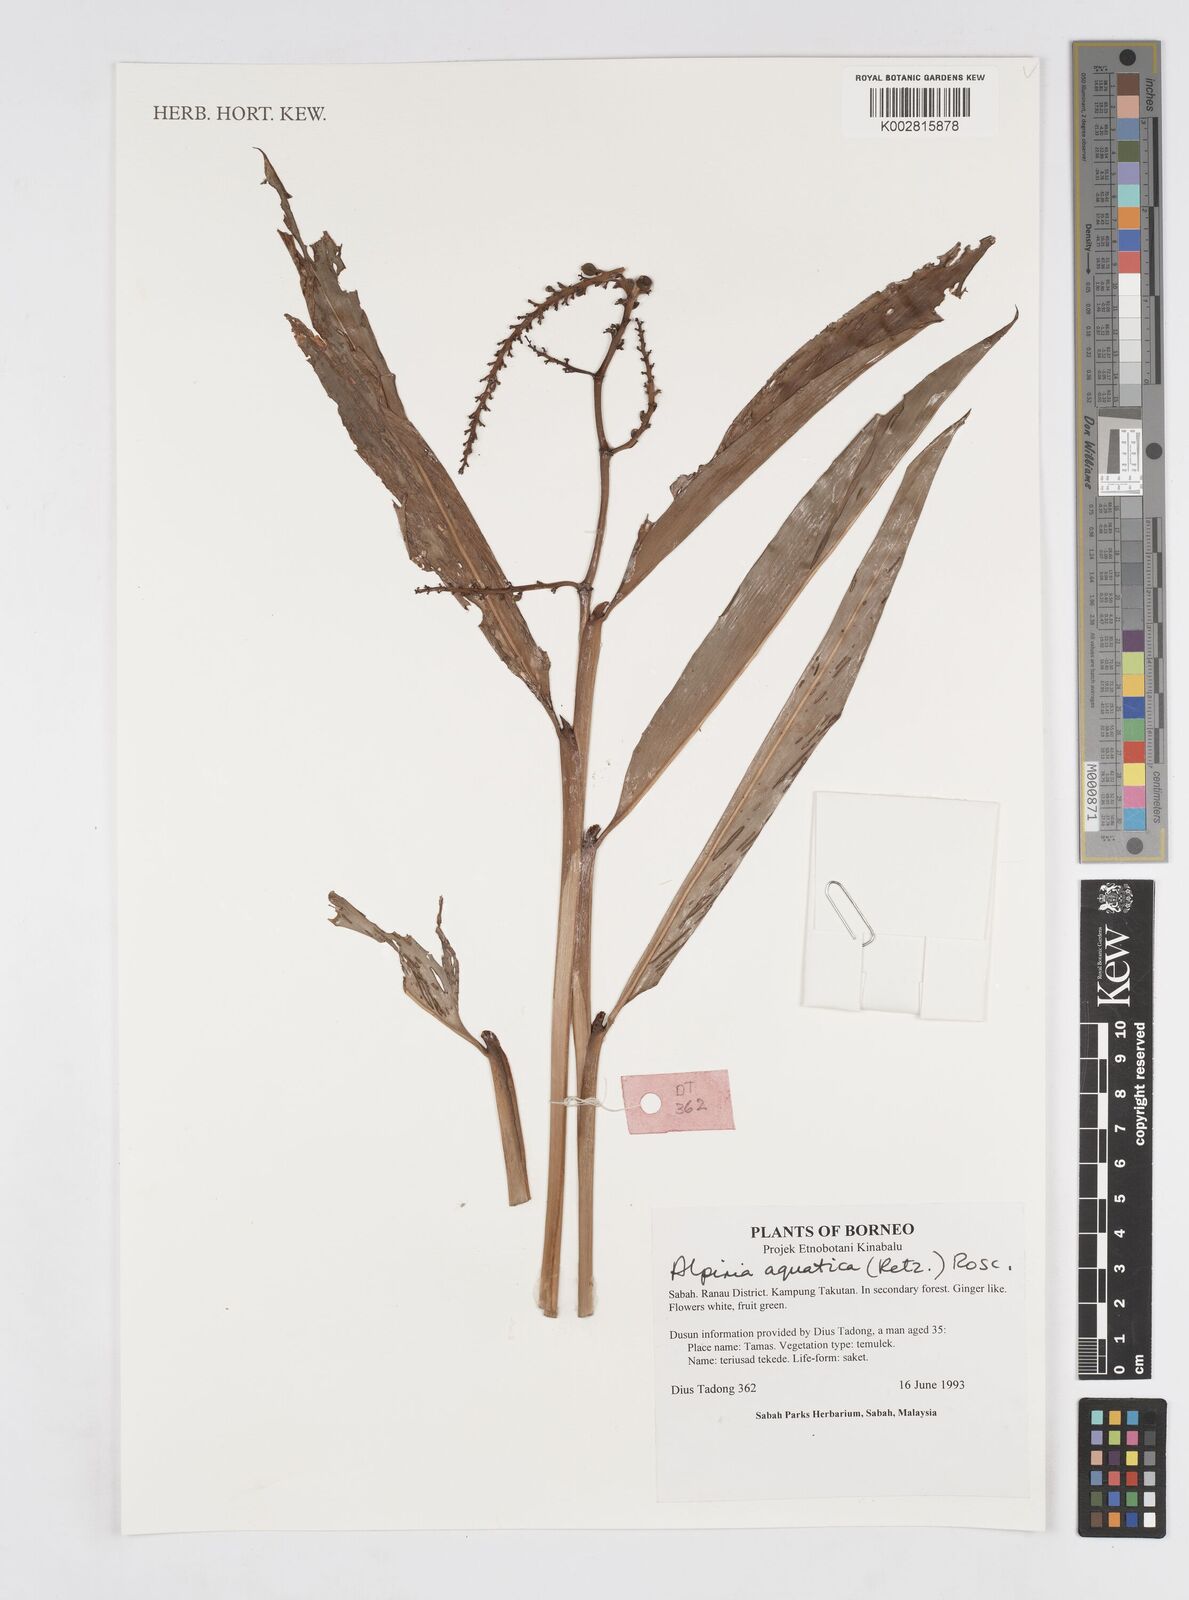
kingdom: Plantae
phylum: Tracheophyta
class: Liliopsida
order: Zingiberales
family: Zingiberaceae
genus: Alpinia
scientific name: Alpinia aquatica
